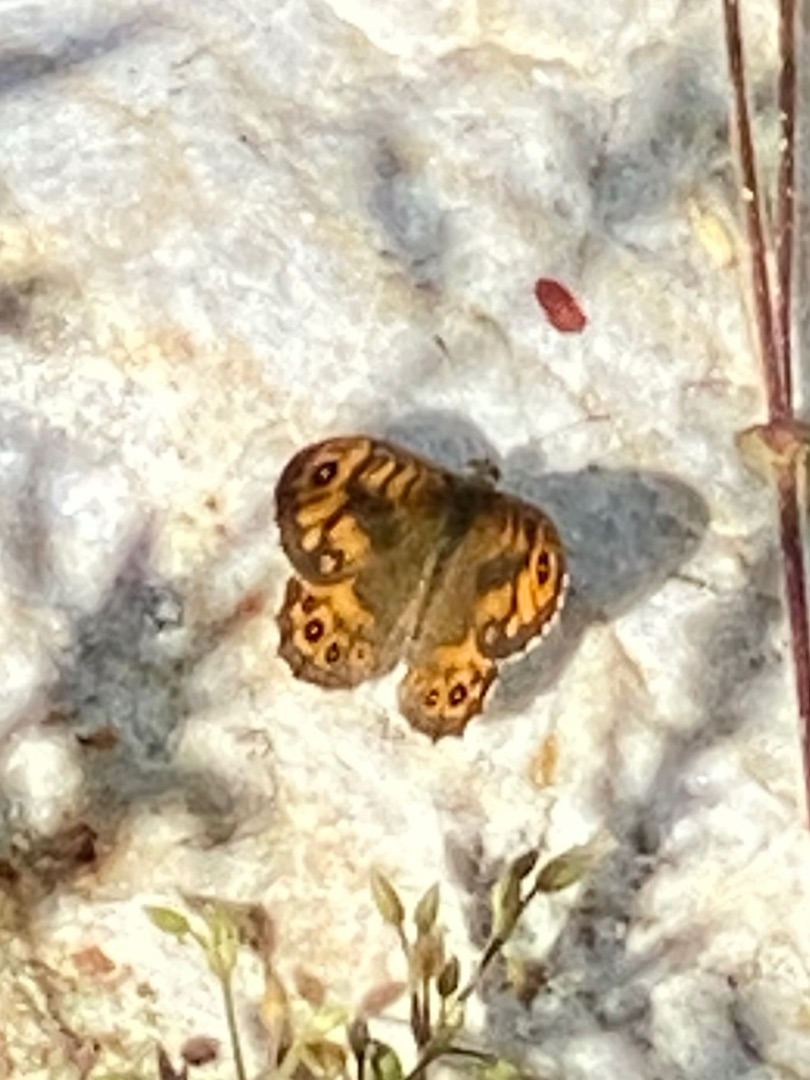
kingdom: Animalia
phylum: Arthropoda
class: Insecta
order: Lepidoptera
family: Nymphalidae
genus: Pararge
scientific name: Pararge Lasiommata megera
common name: Vejrandøje
